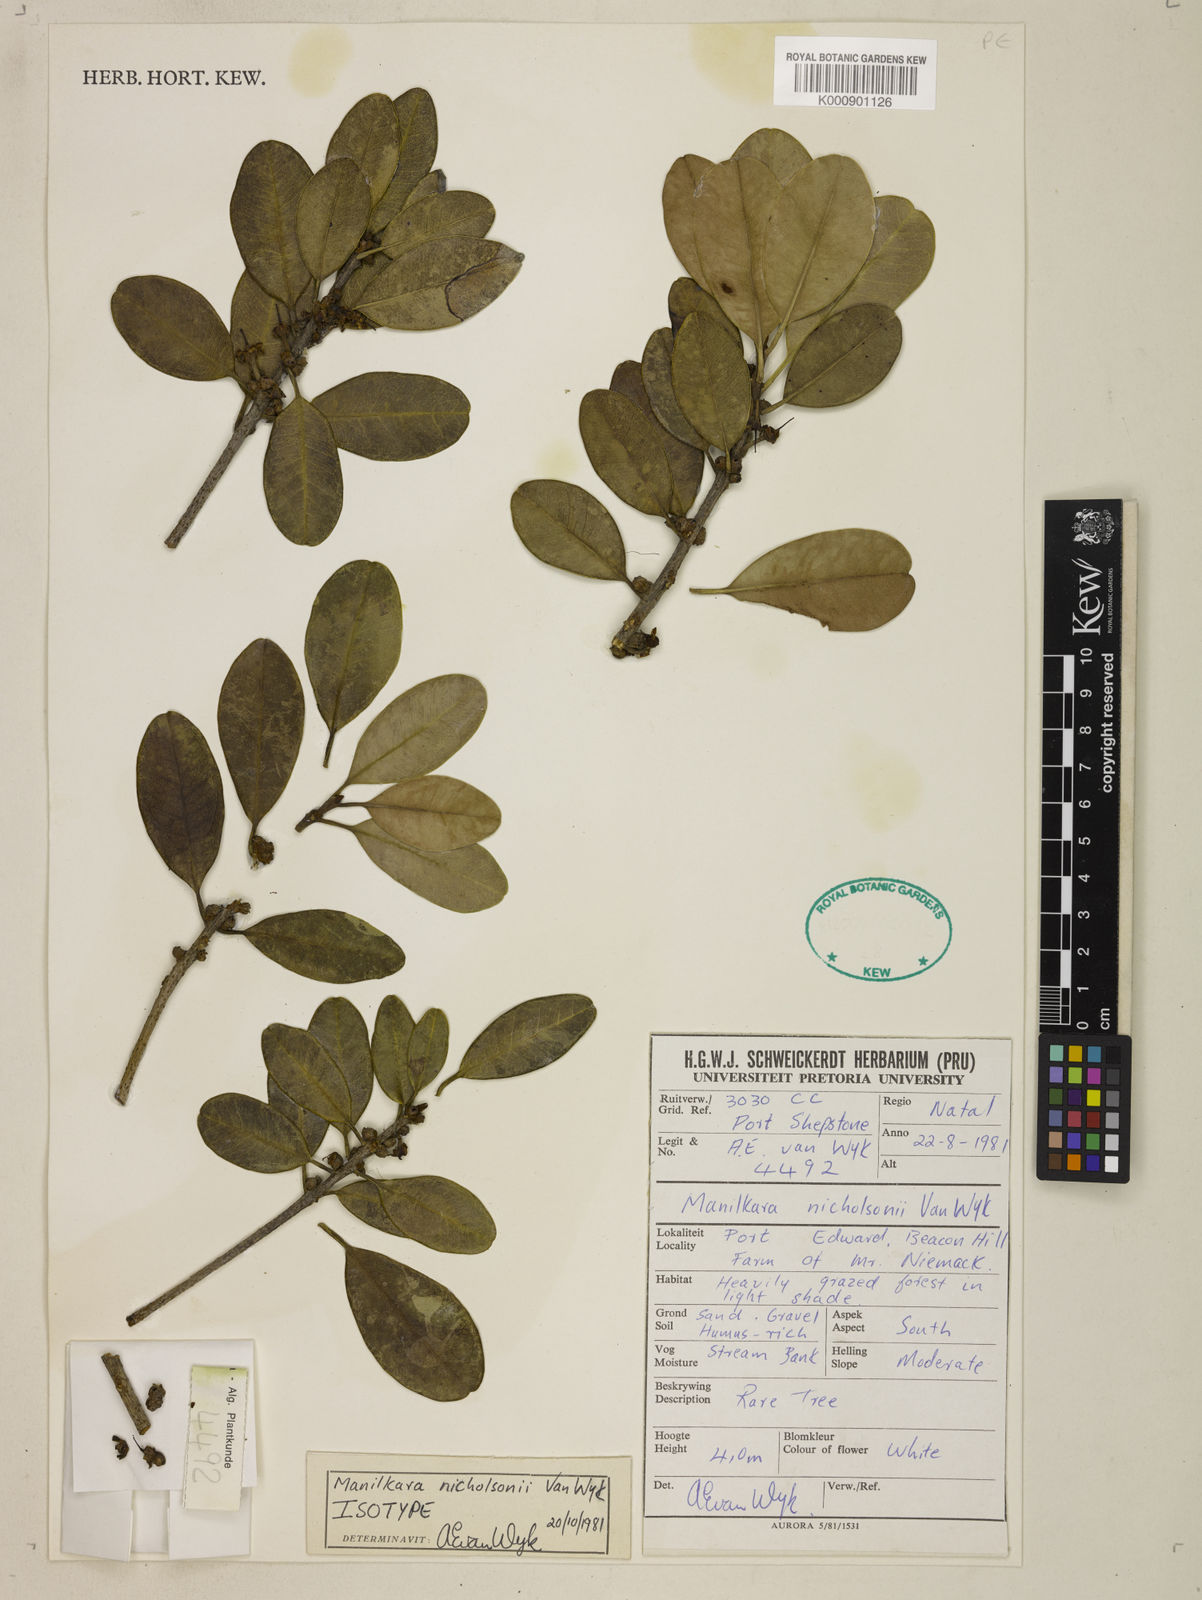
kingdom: Plantae
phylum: Tracheophyta
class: Magnoliopsida
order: Ericales
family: Sapotaceae
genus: Manilkara
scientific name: Manilkara nicholsonii
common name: Pondo milkberry
